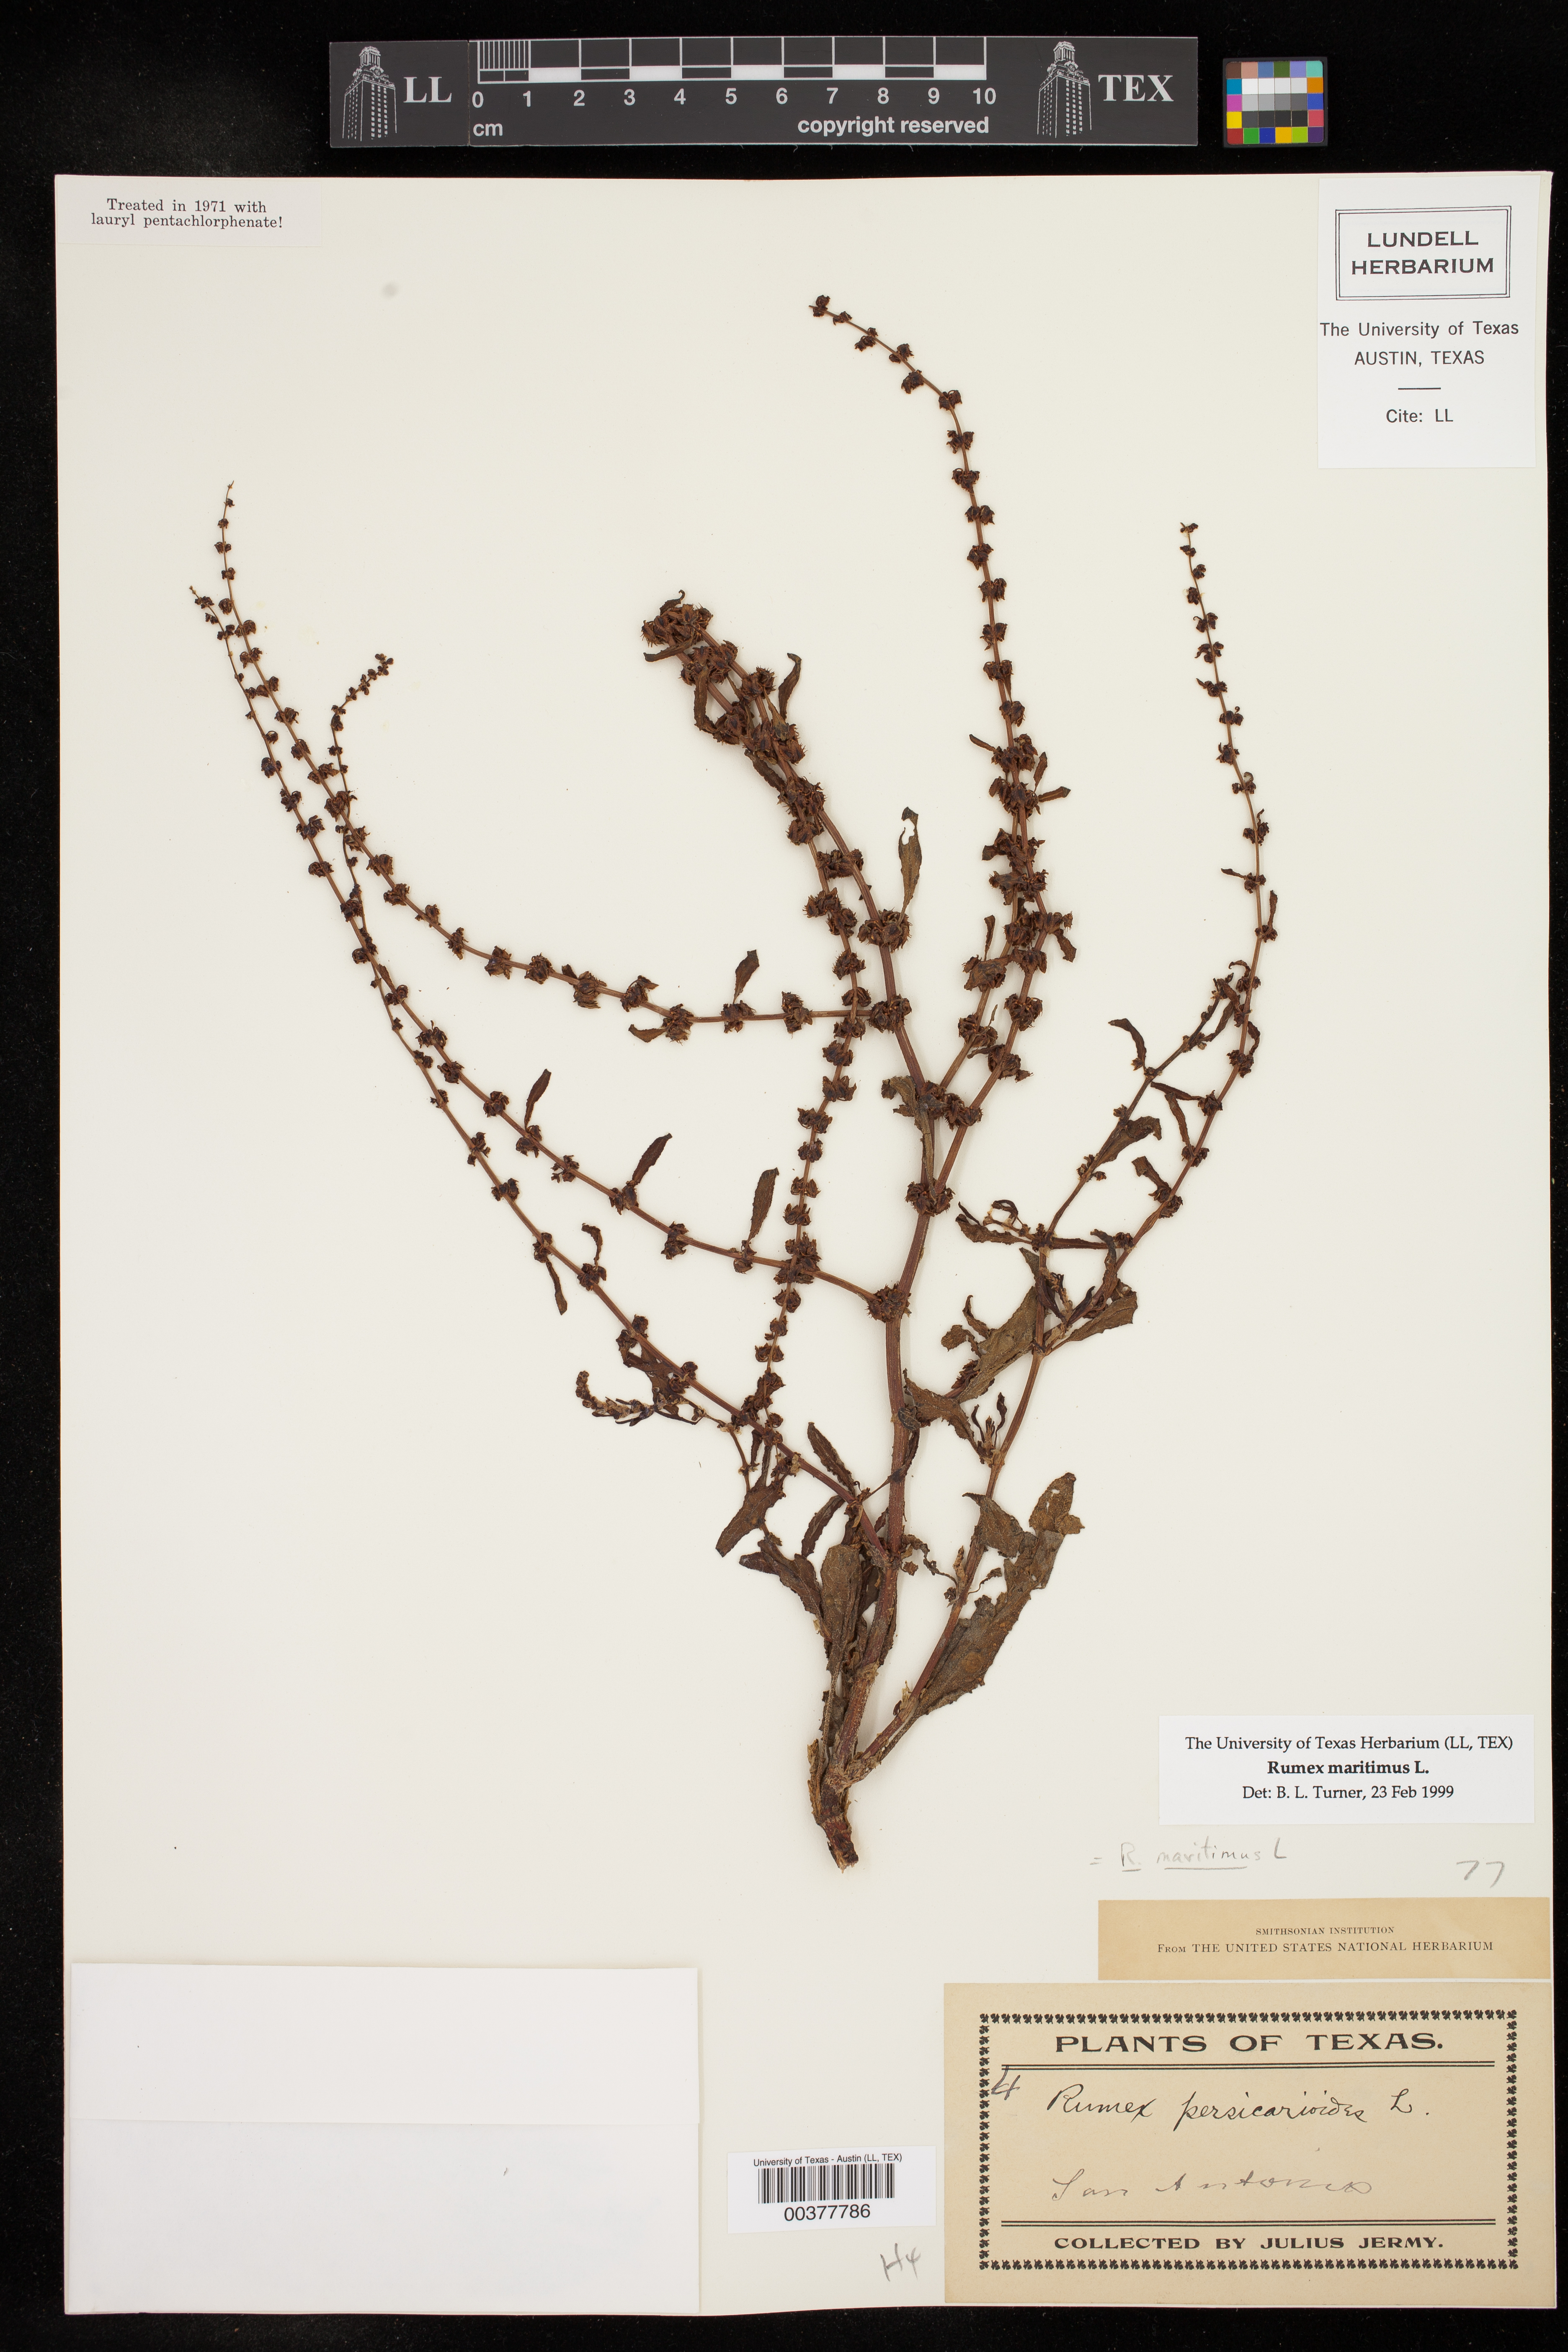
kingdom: Plantae
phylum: Tracheophyta
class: Magnoliopsida
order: Caryophyllales
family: Polygonaceae
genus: Rumex
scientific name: Rumex maritimus
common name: Golden dock
